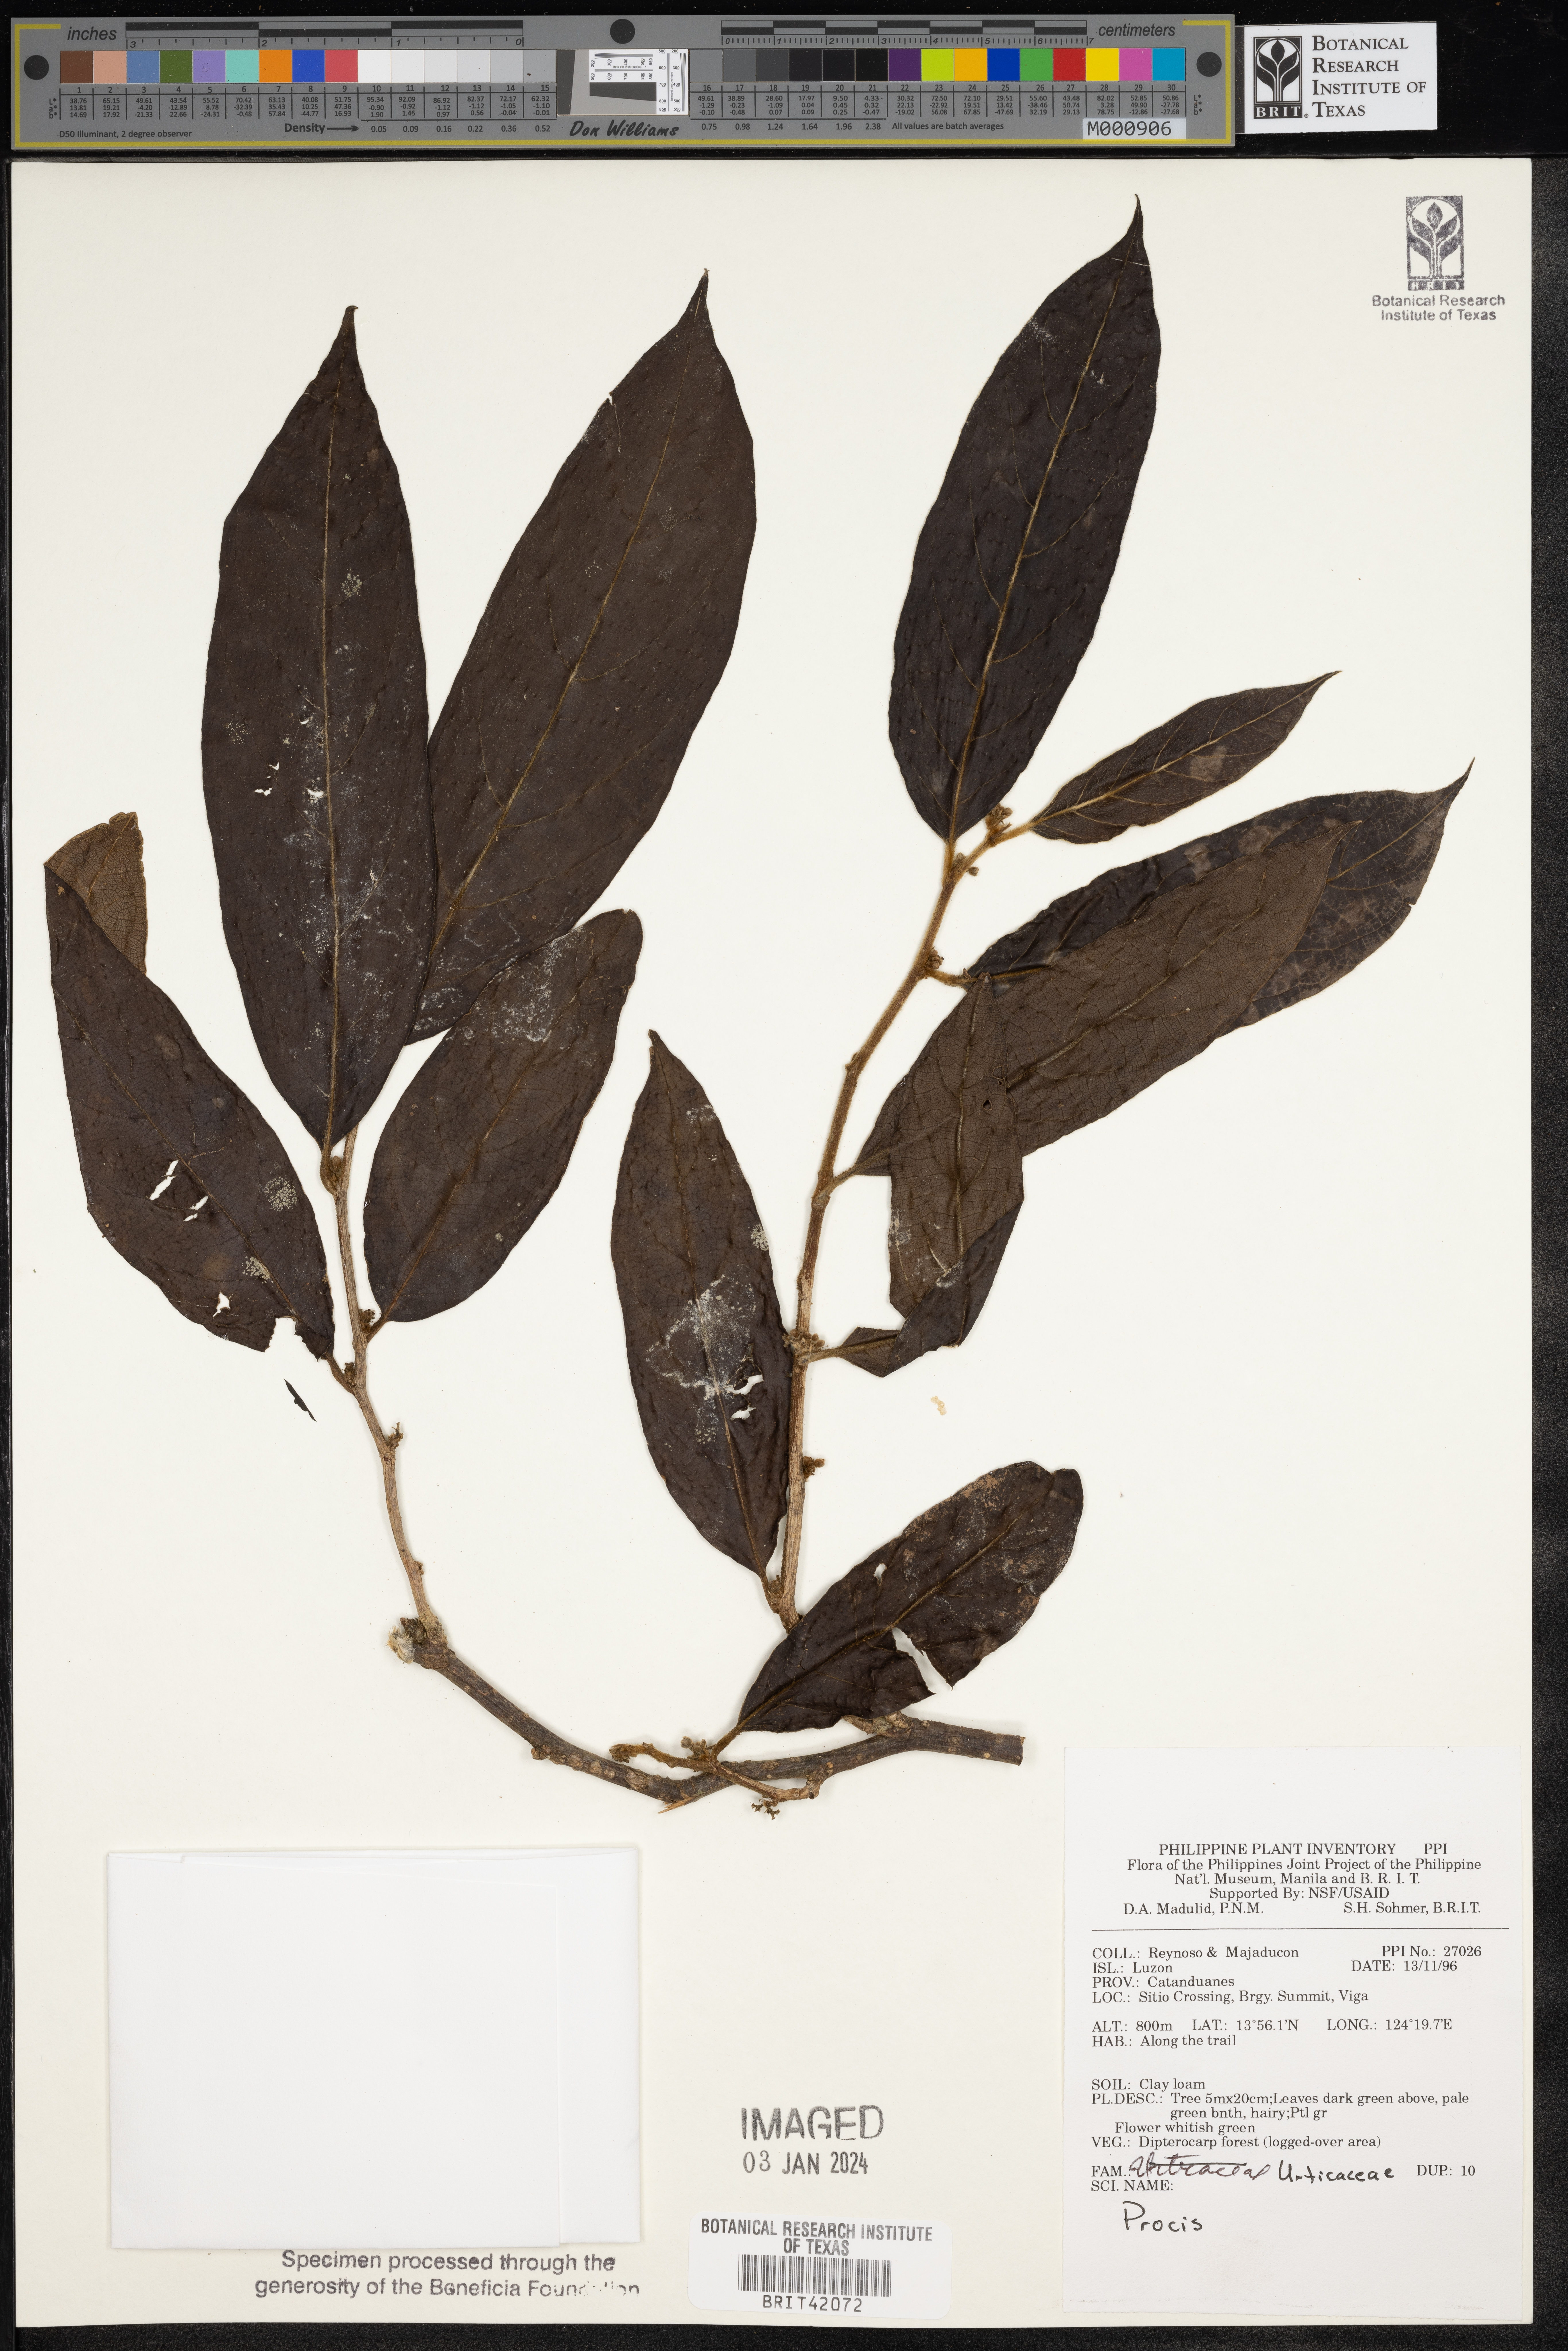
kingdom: Plantae
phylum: Tracheophyta
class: Magnoliopsida
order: Rosales
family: Urticaceae
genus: Procris
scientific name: Procris
